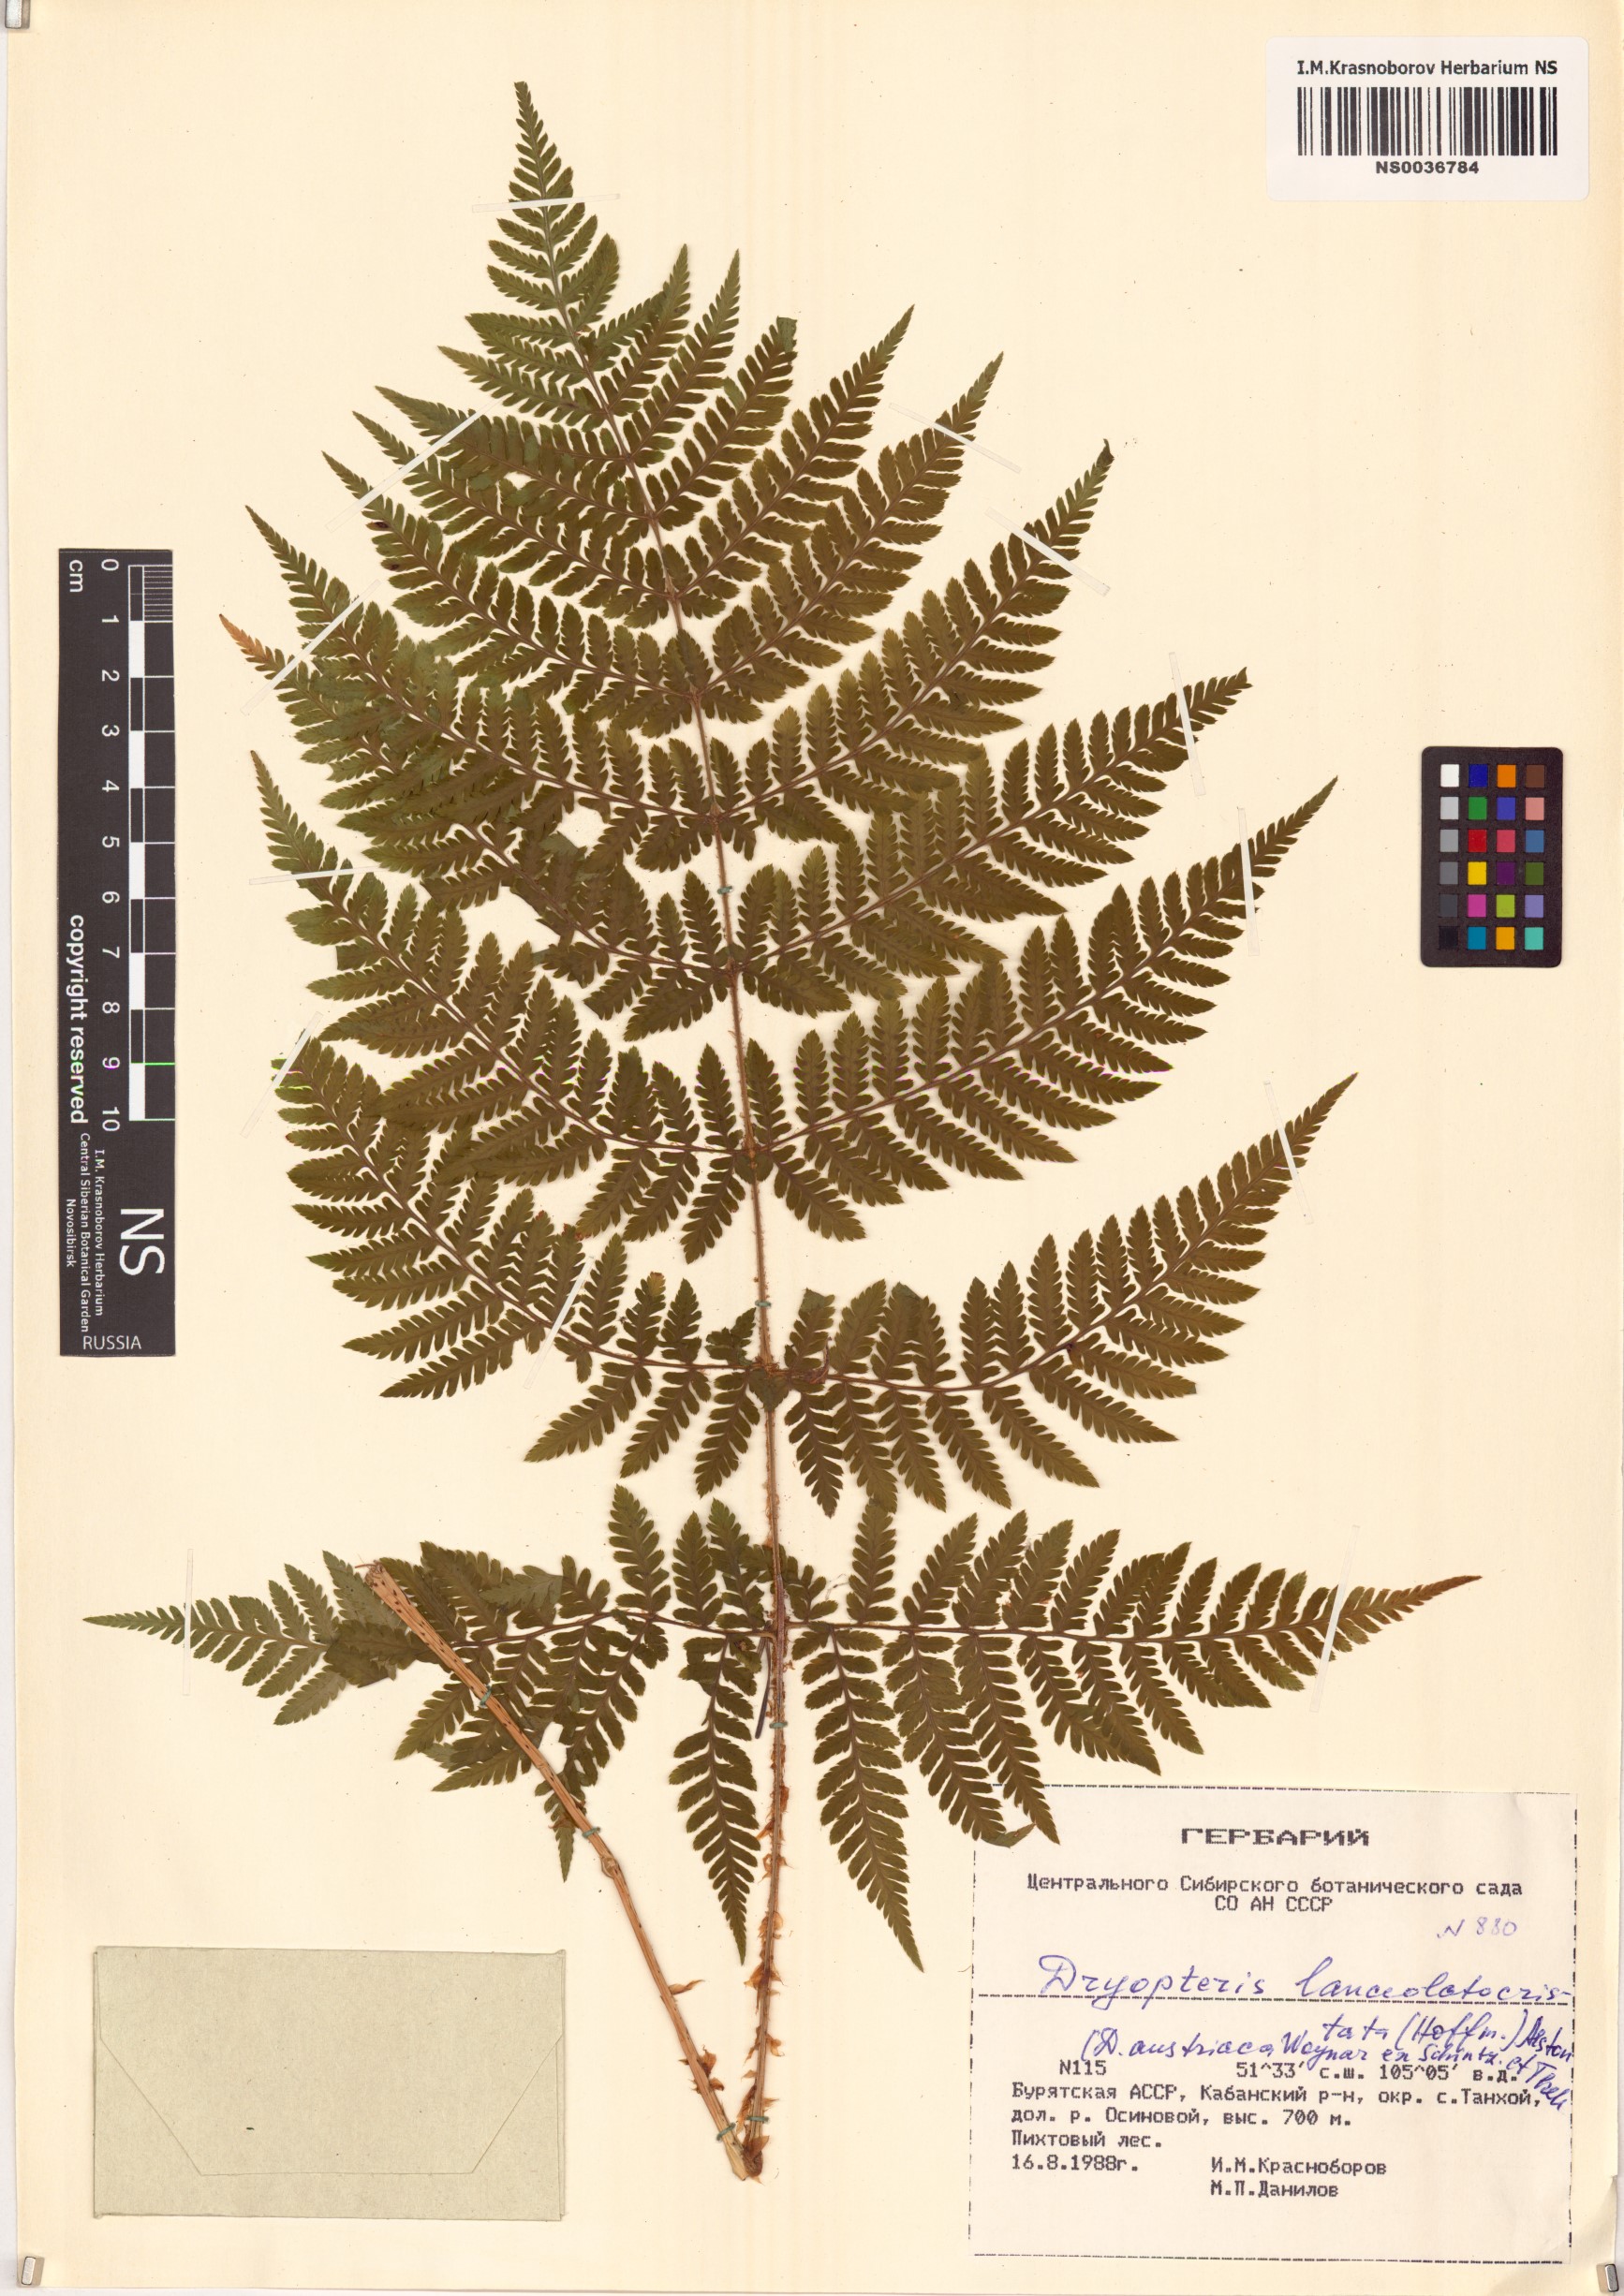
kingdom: Plantae
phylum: Tracheophyta
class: Polypodiopsida
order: Polypodiales
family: Dryopteridaceae
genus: Dryopteris
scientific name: Dryopteris carthusiana
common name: Narrow buckler-fern
